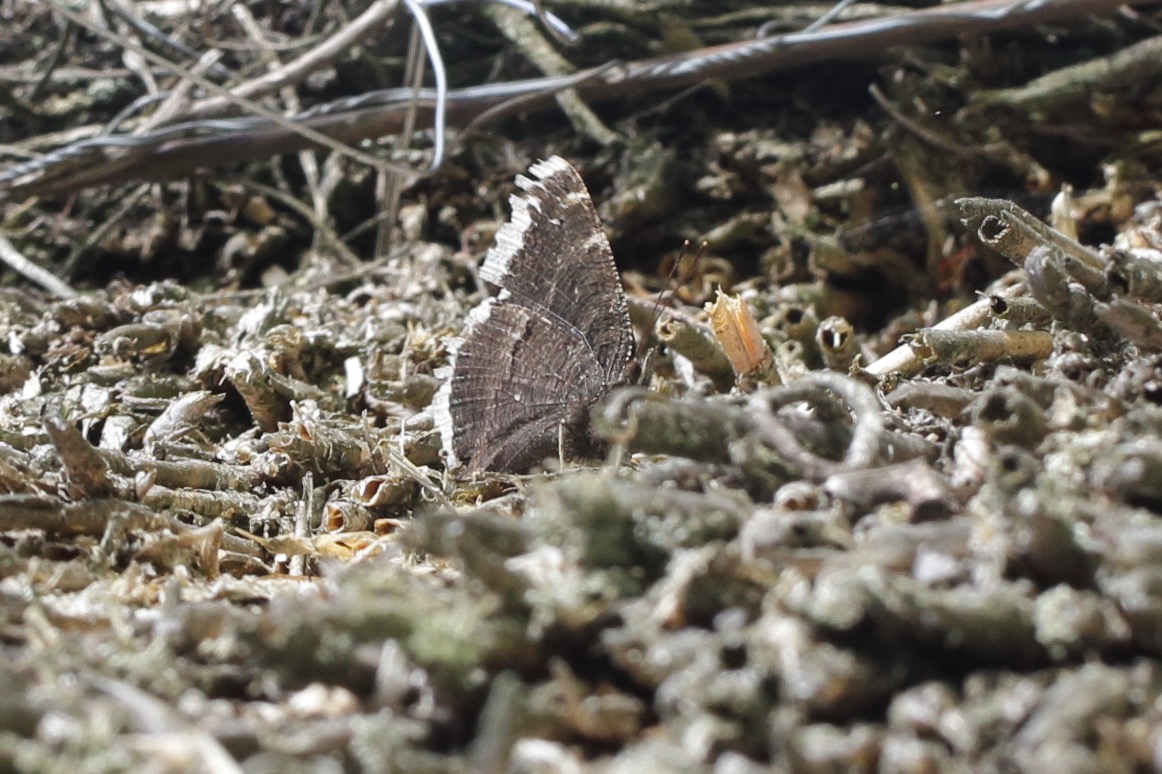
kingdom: Animalia
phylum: Arthropoda
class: Insecta
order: Lepidoptera
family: Nymphalidae
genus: Nymphalis
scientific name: Nymphalis antiopa
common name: Sørgekåbe
